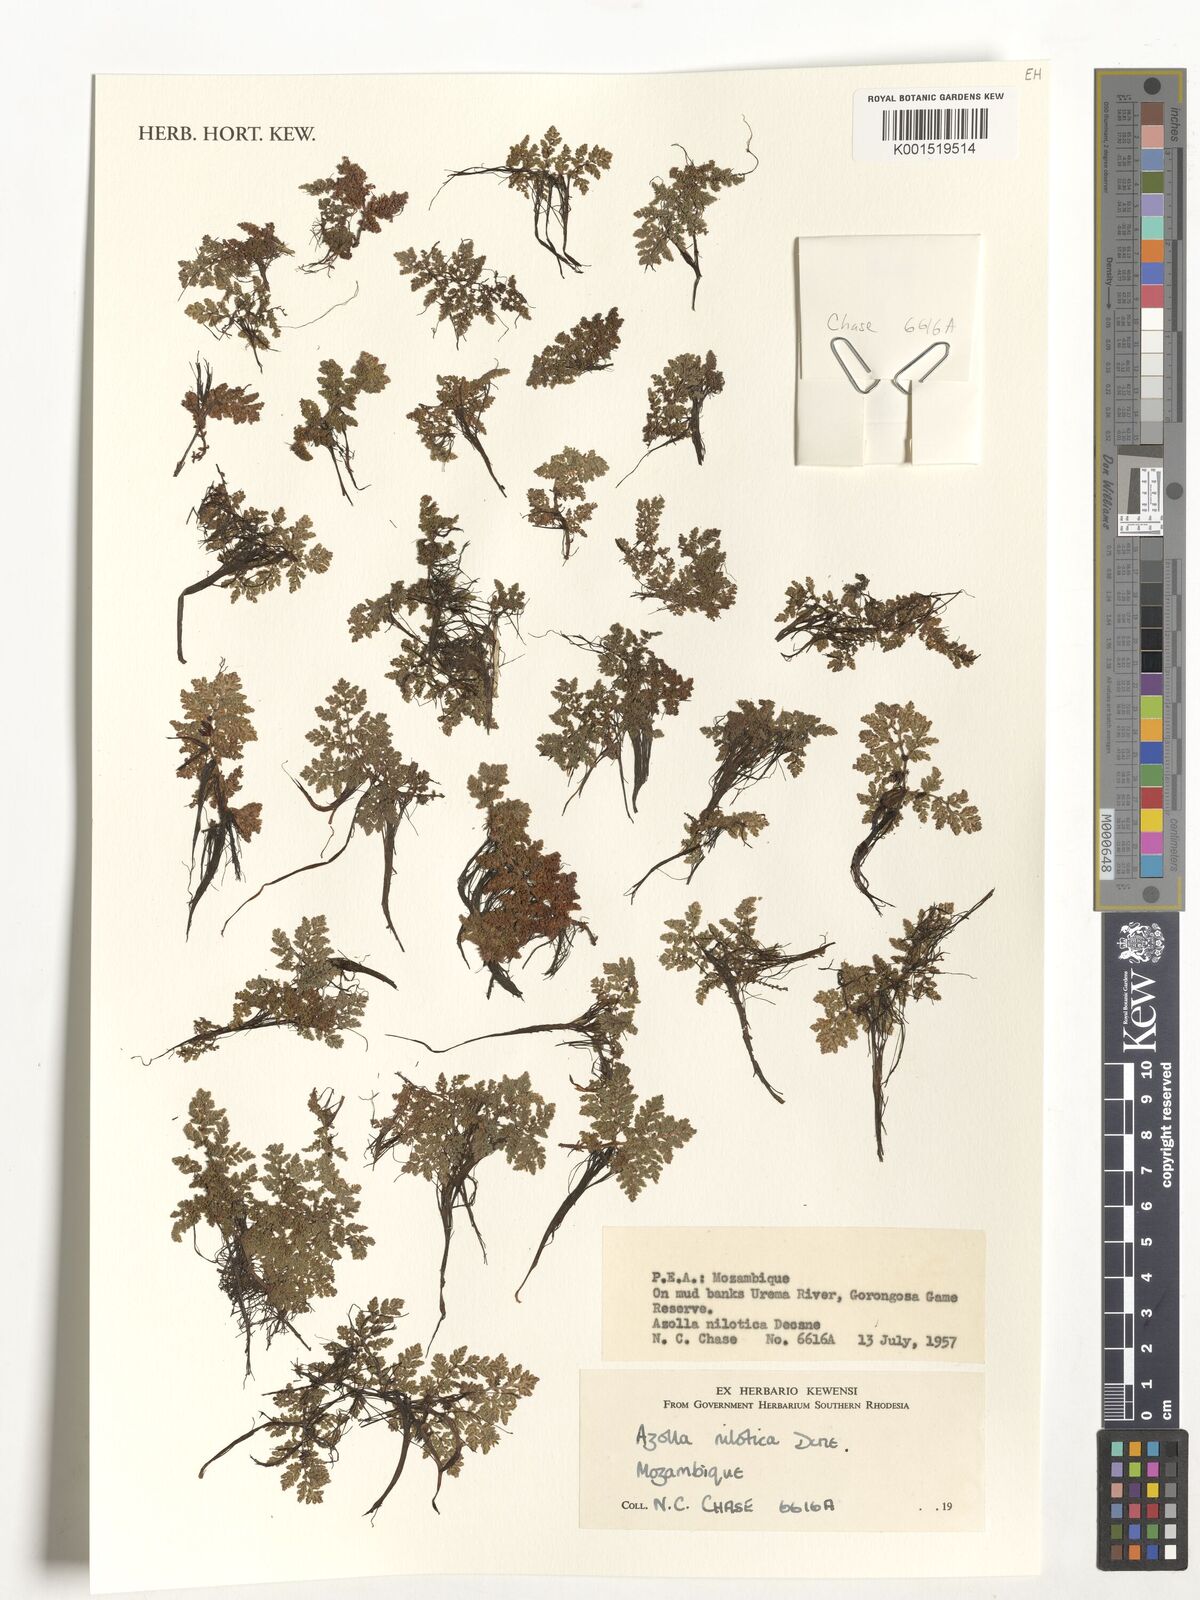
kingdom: Plantae
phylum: Tracheophyta
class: Polypodiopsida
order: Salviniales
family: Salviniaceae
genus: Azolla
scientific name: Azolla nilotica
